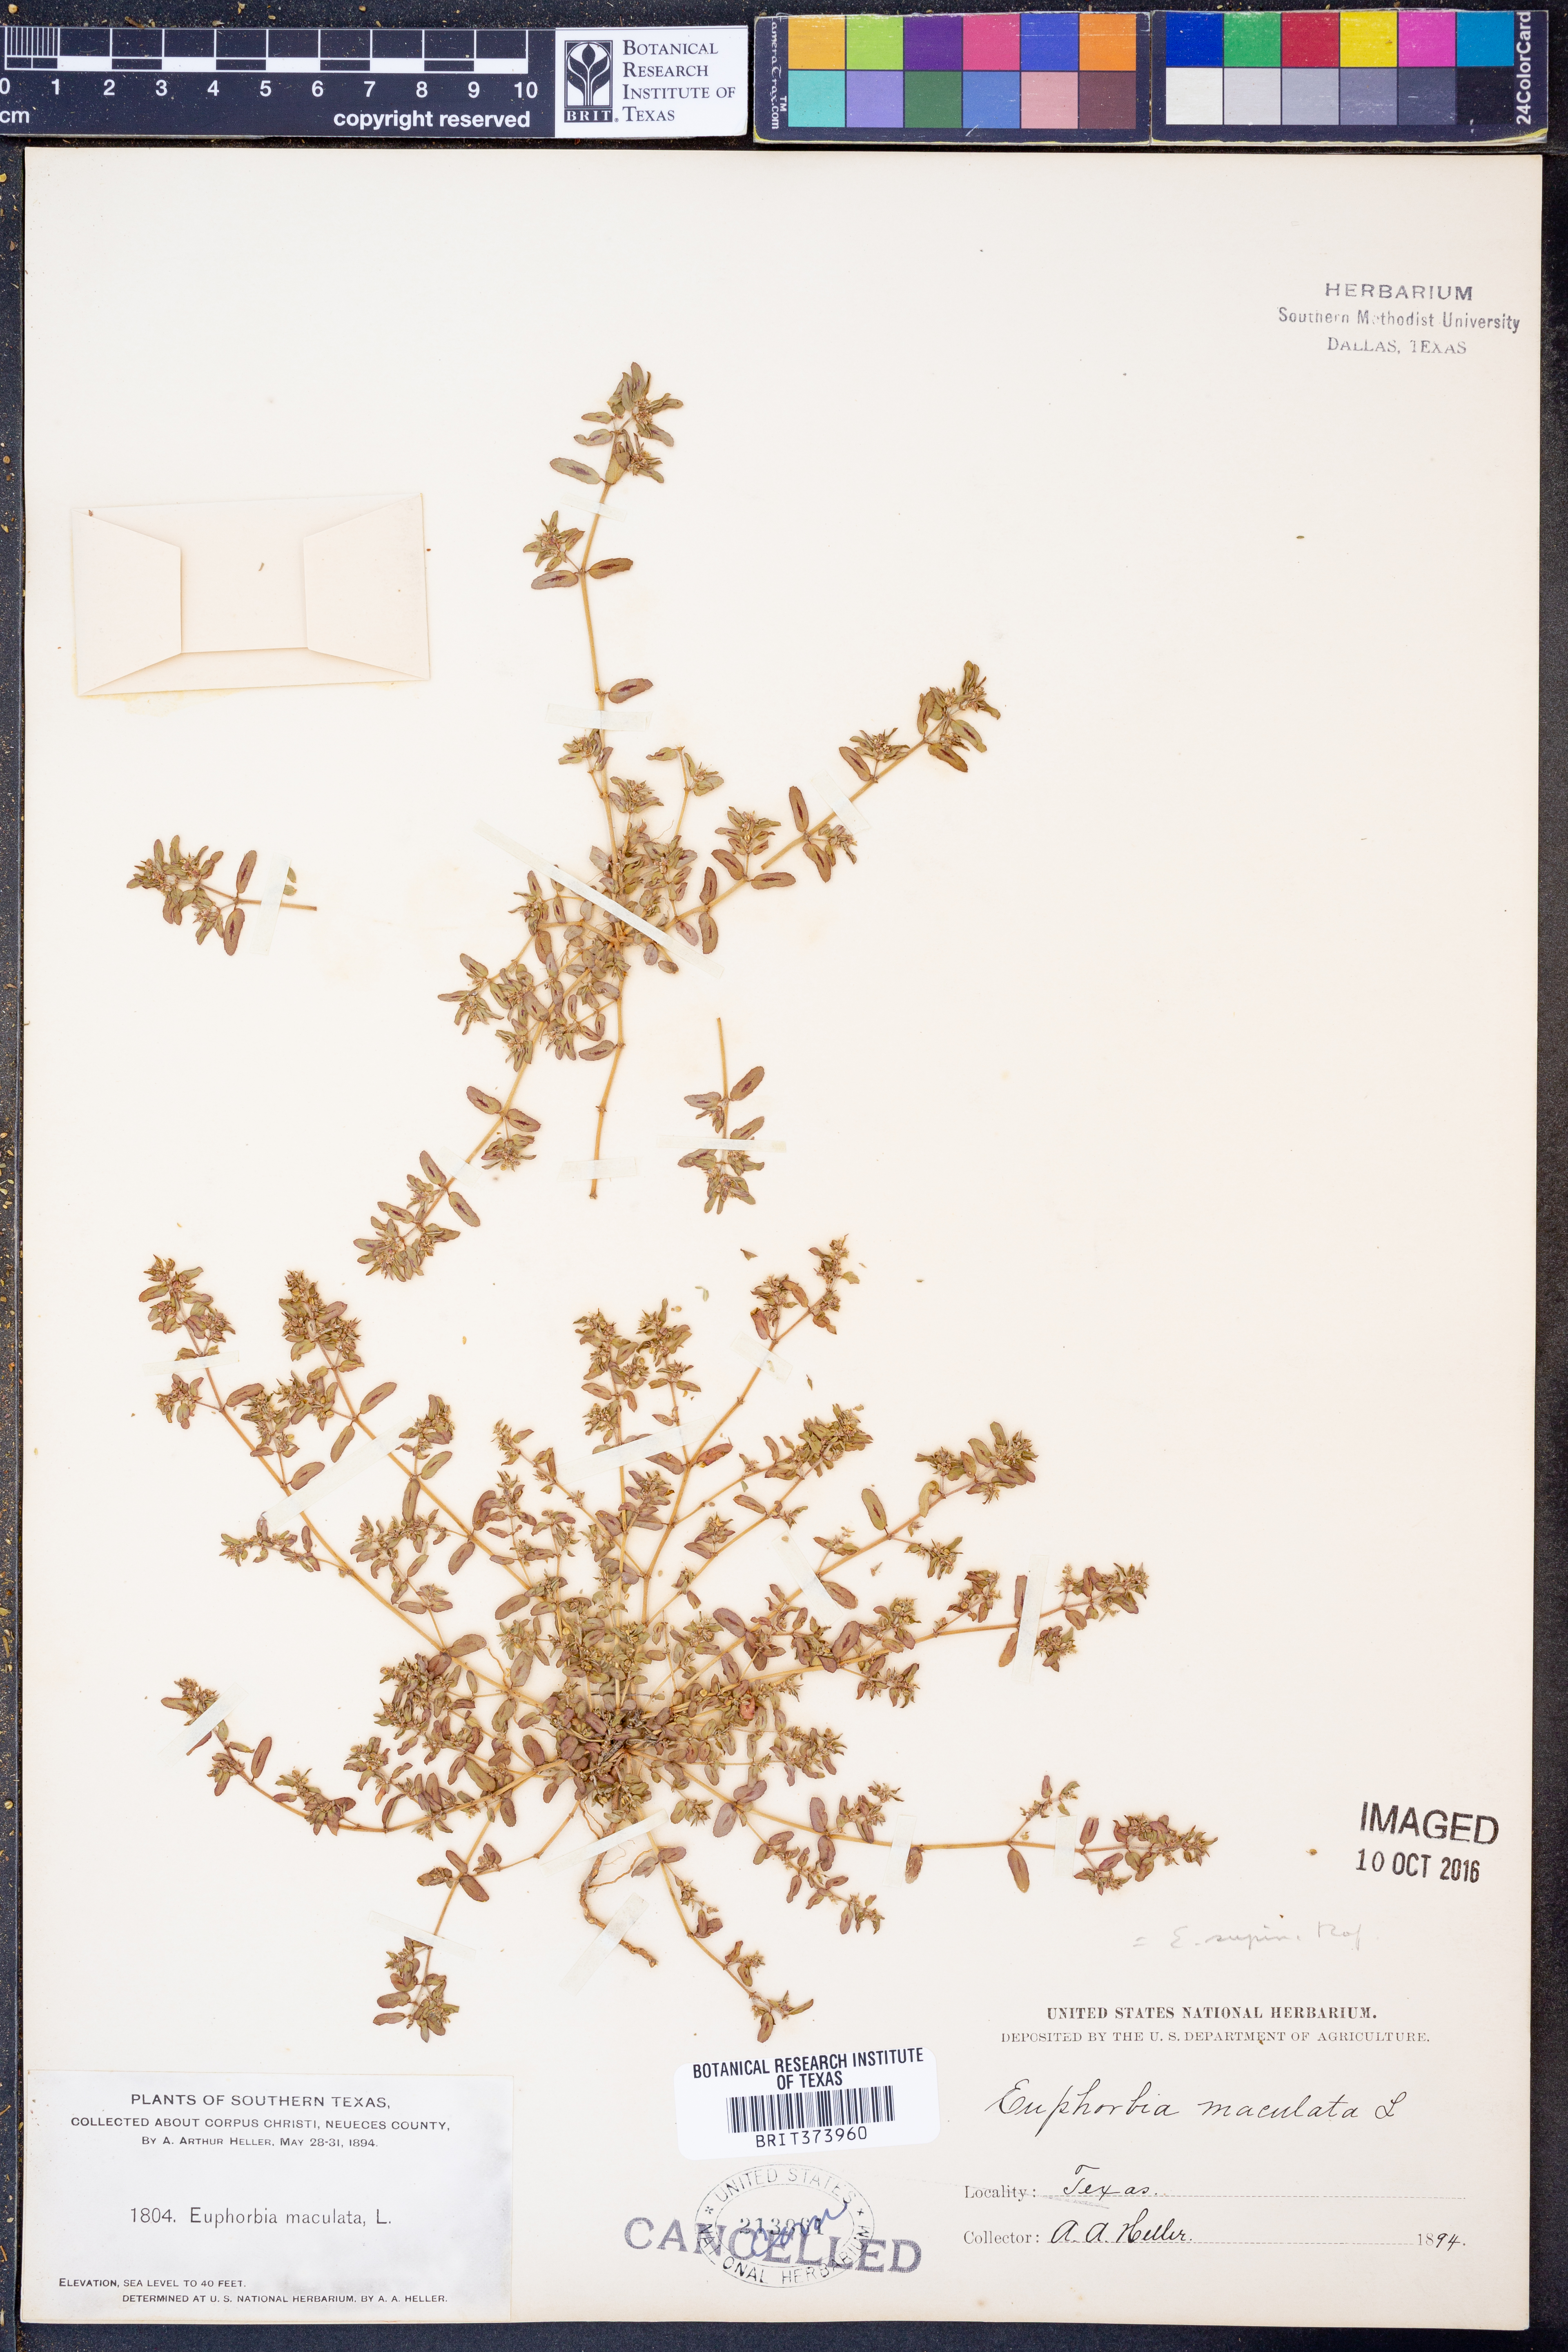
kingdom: Plantae
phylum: Tracheophyta
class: Magnoliopsida
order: Malpighiales
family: Euphorbiaceae
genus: Euphorbia
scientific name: Euphorbia maculata
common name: Spotted spurge
